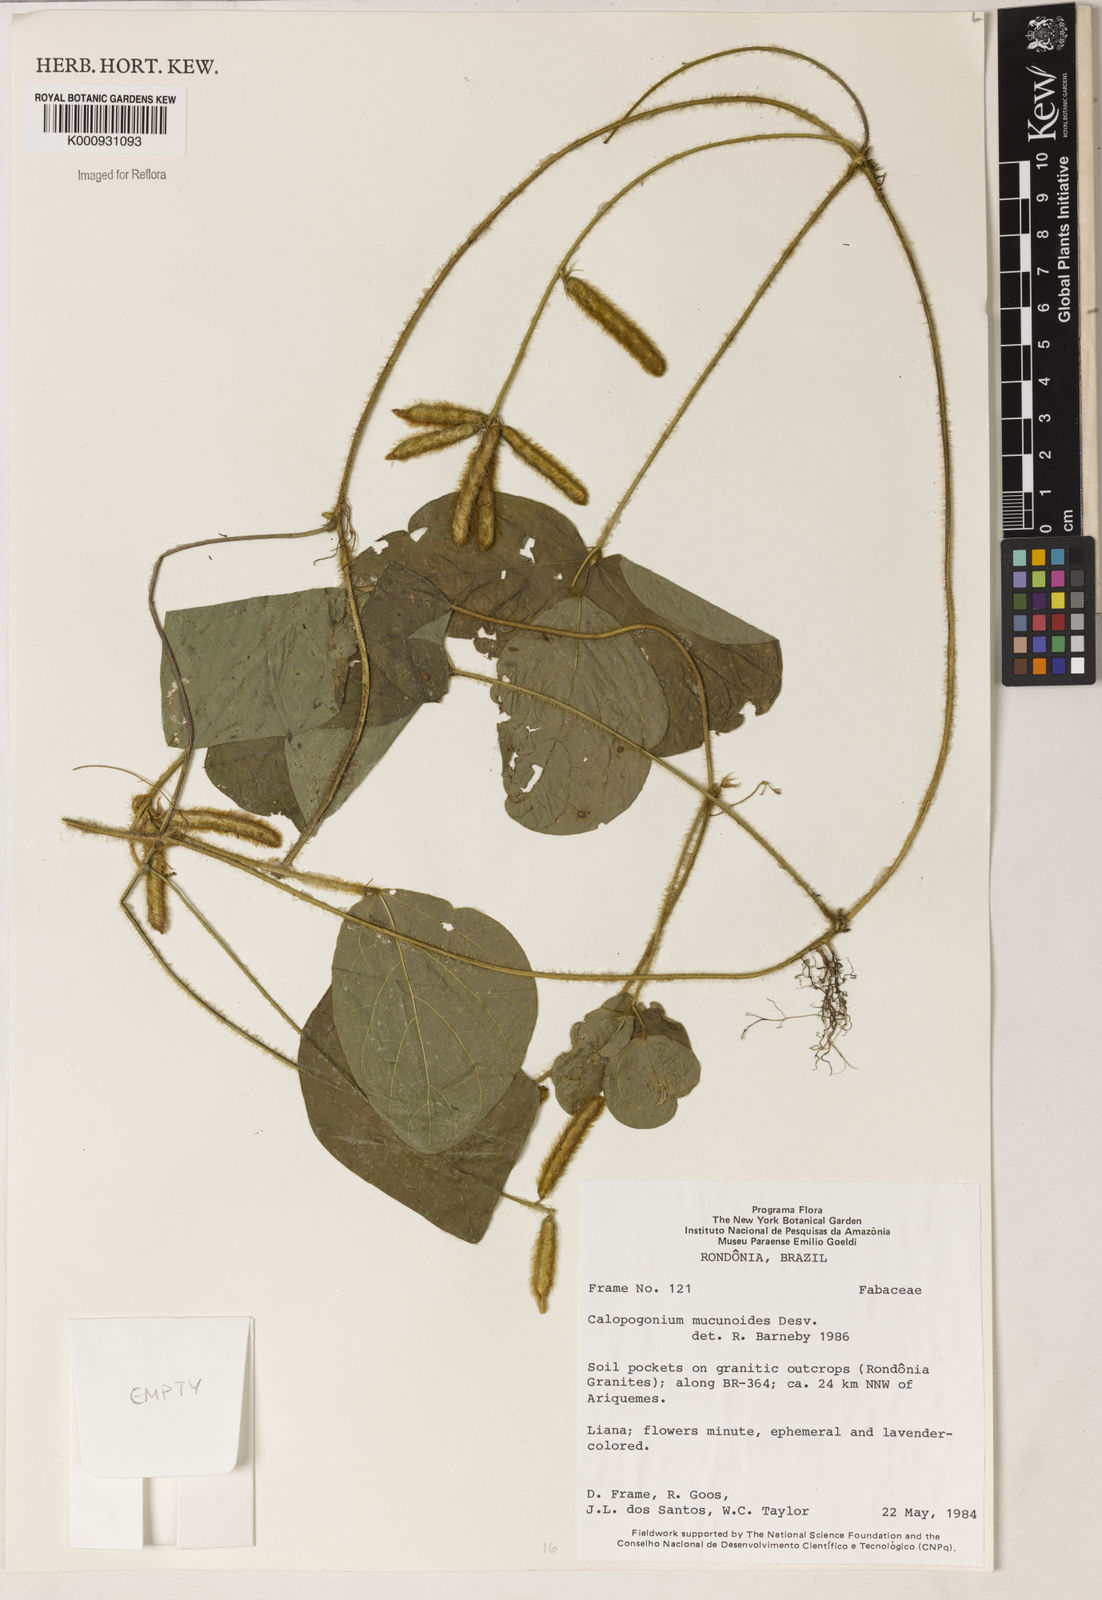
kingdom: Plantae
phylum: Tracheophyta
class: Magnoliopsida
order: Fabales
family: Fabaceae
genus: Calopogonium
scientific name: Calopogonium mucunoides
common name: Calopo
